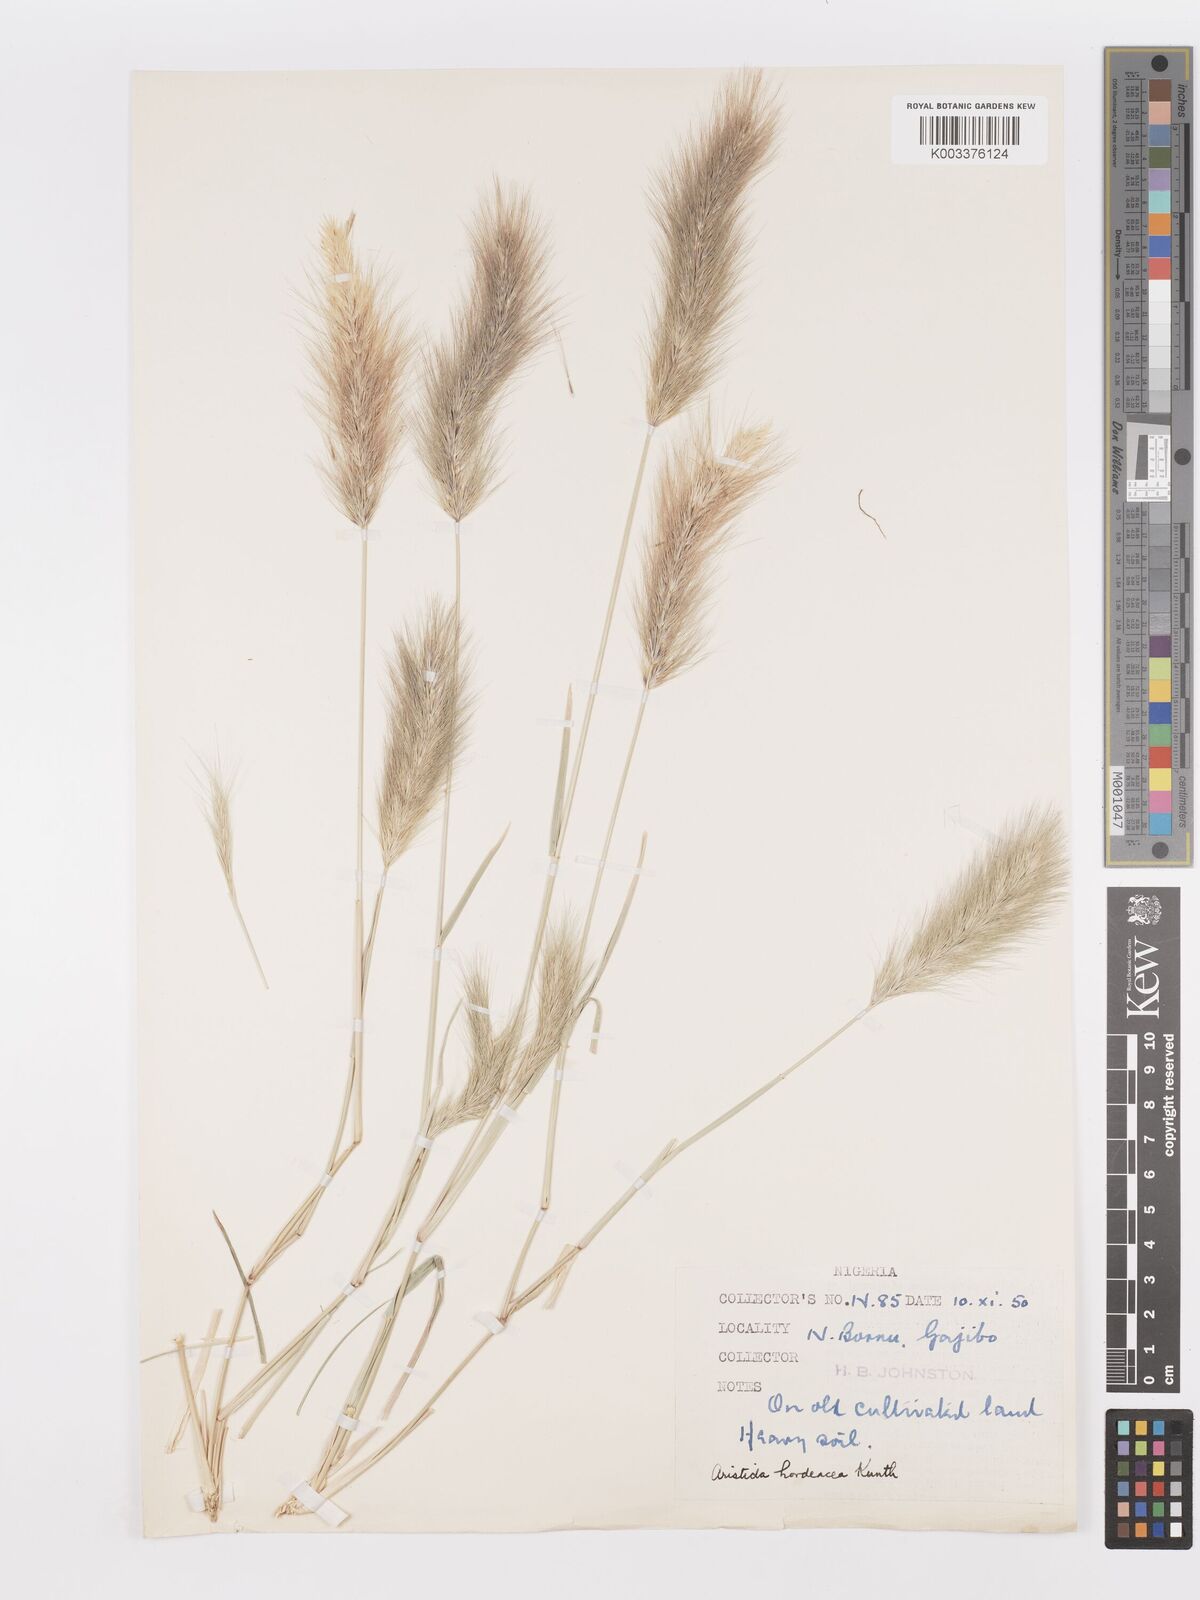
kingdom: Plantae
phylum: Tracheophyta
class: Liliopsida
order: Poales
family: Poaceae
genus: Aristida
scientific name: Aristida hordeacea
